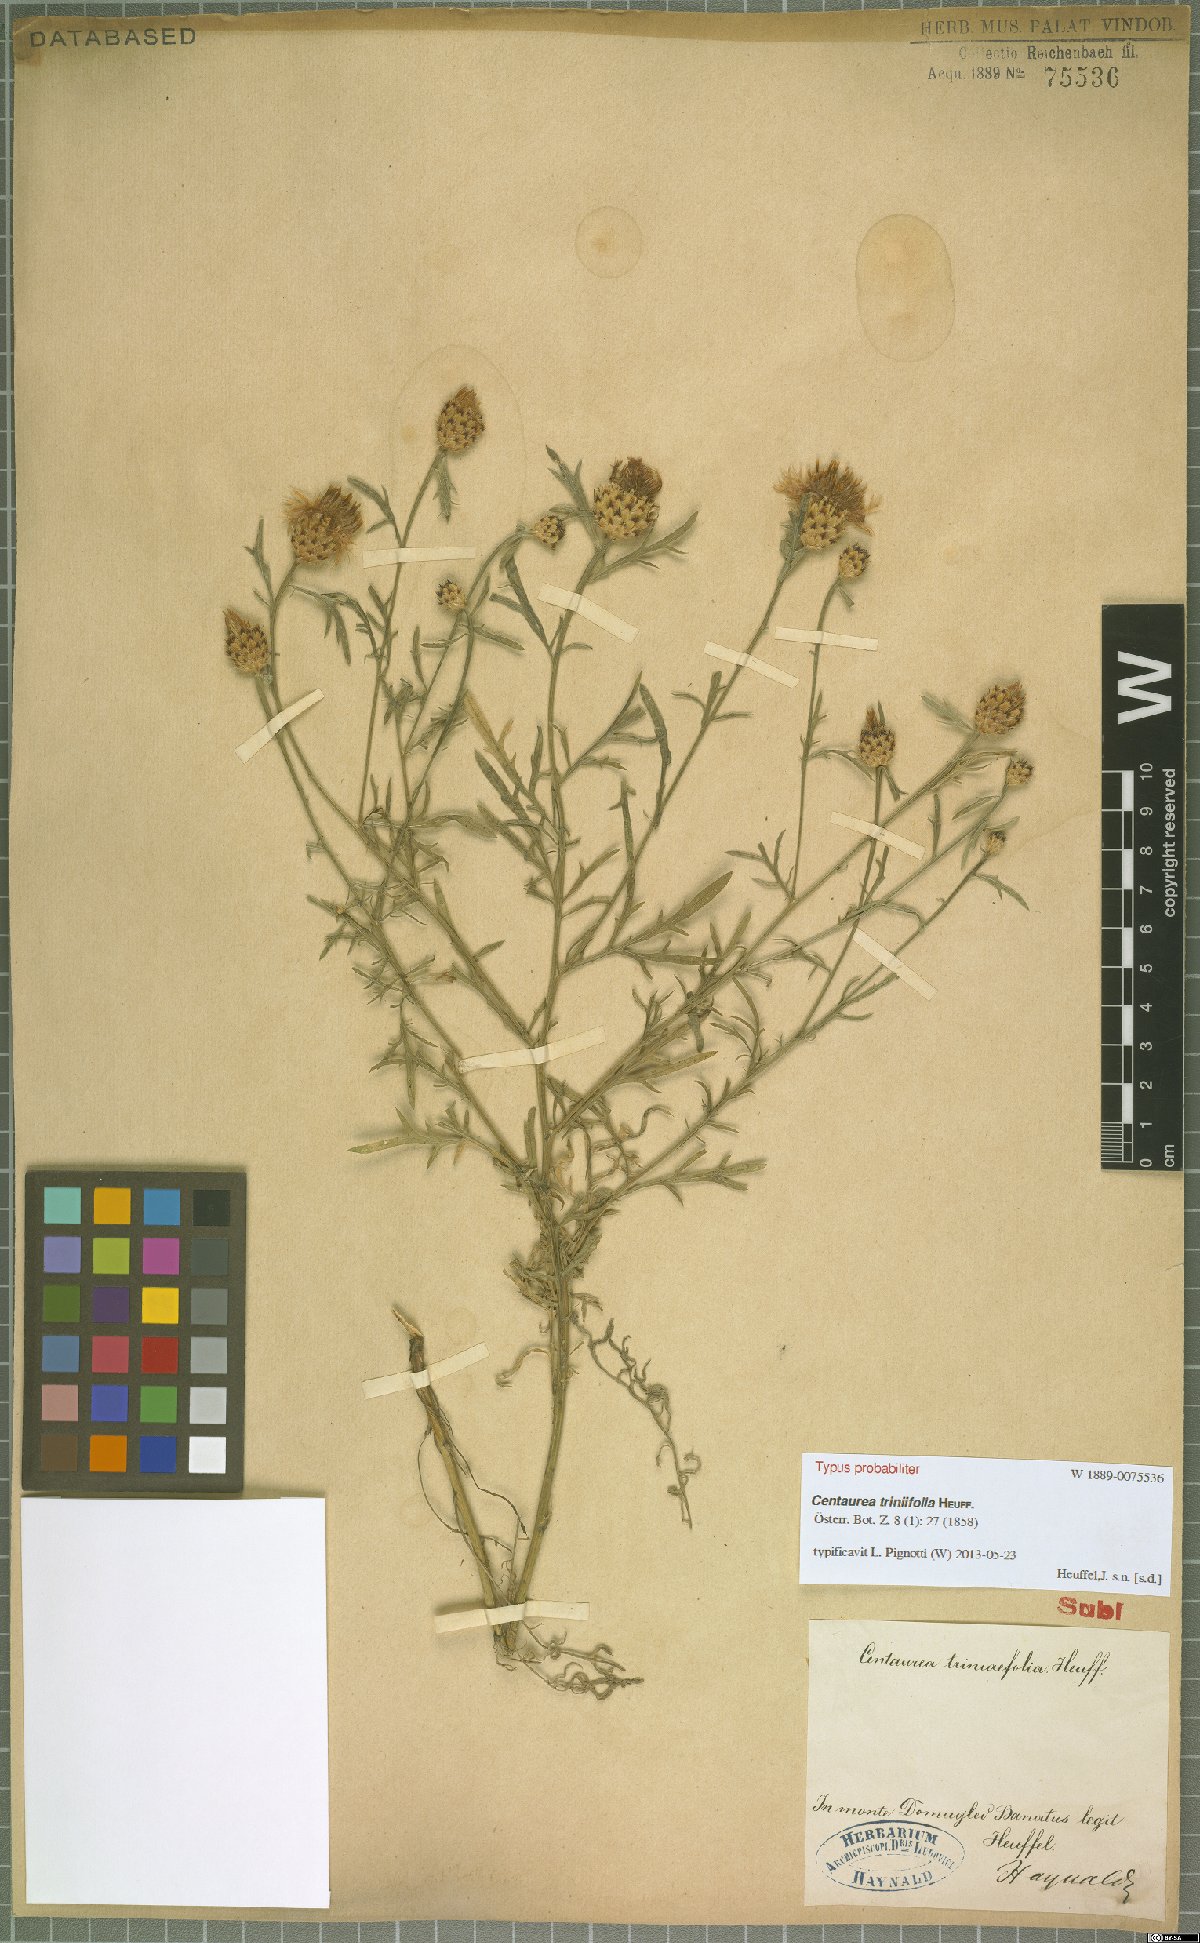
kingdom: Plantae
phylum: Tracheophyta
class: Magnoliopsida
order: Asterales
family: Asteraceae
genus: Centaurea
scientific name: Centaurea triniifolia
